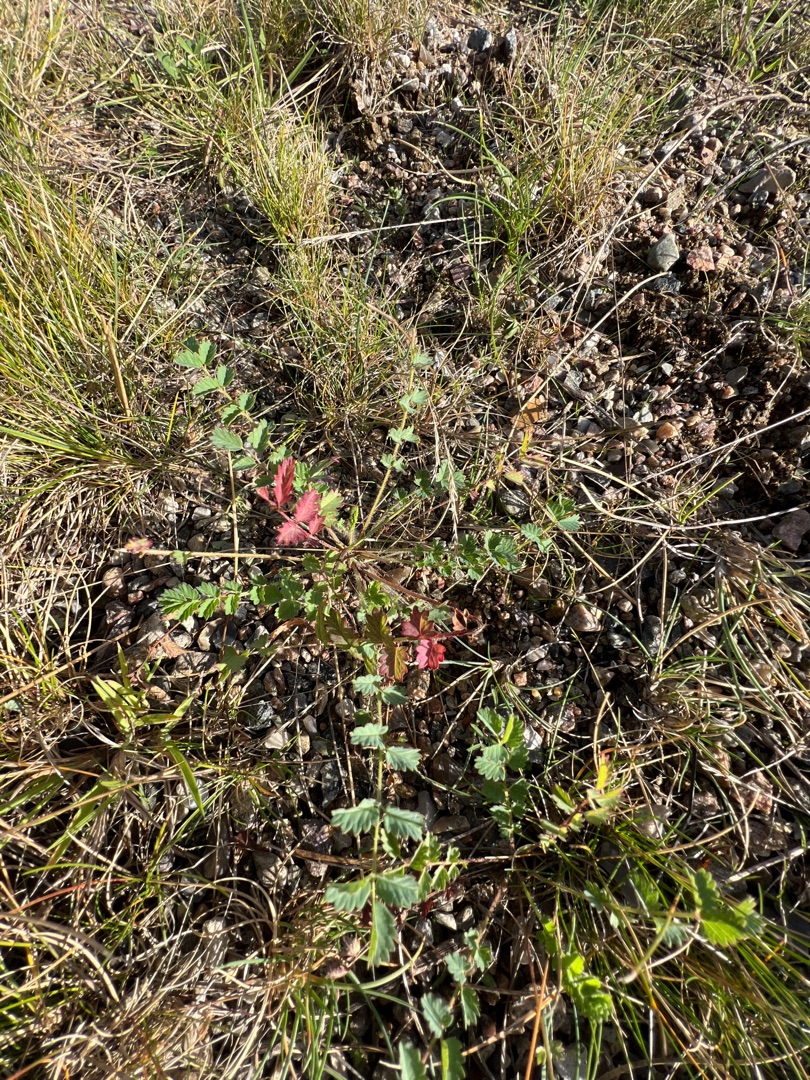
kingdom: Plantae
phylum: Tracheophyta
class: Magnoliopsida
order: Rosales
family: Rosaceae
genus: Poterium
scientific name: Poterium sanguisorba
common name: Bibernelle
